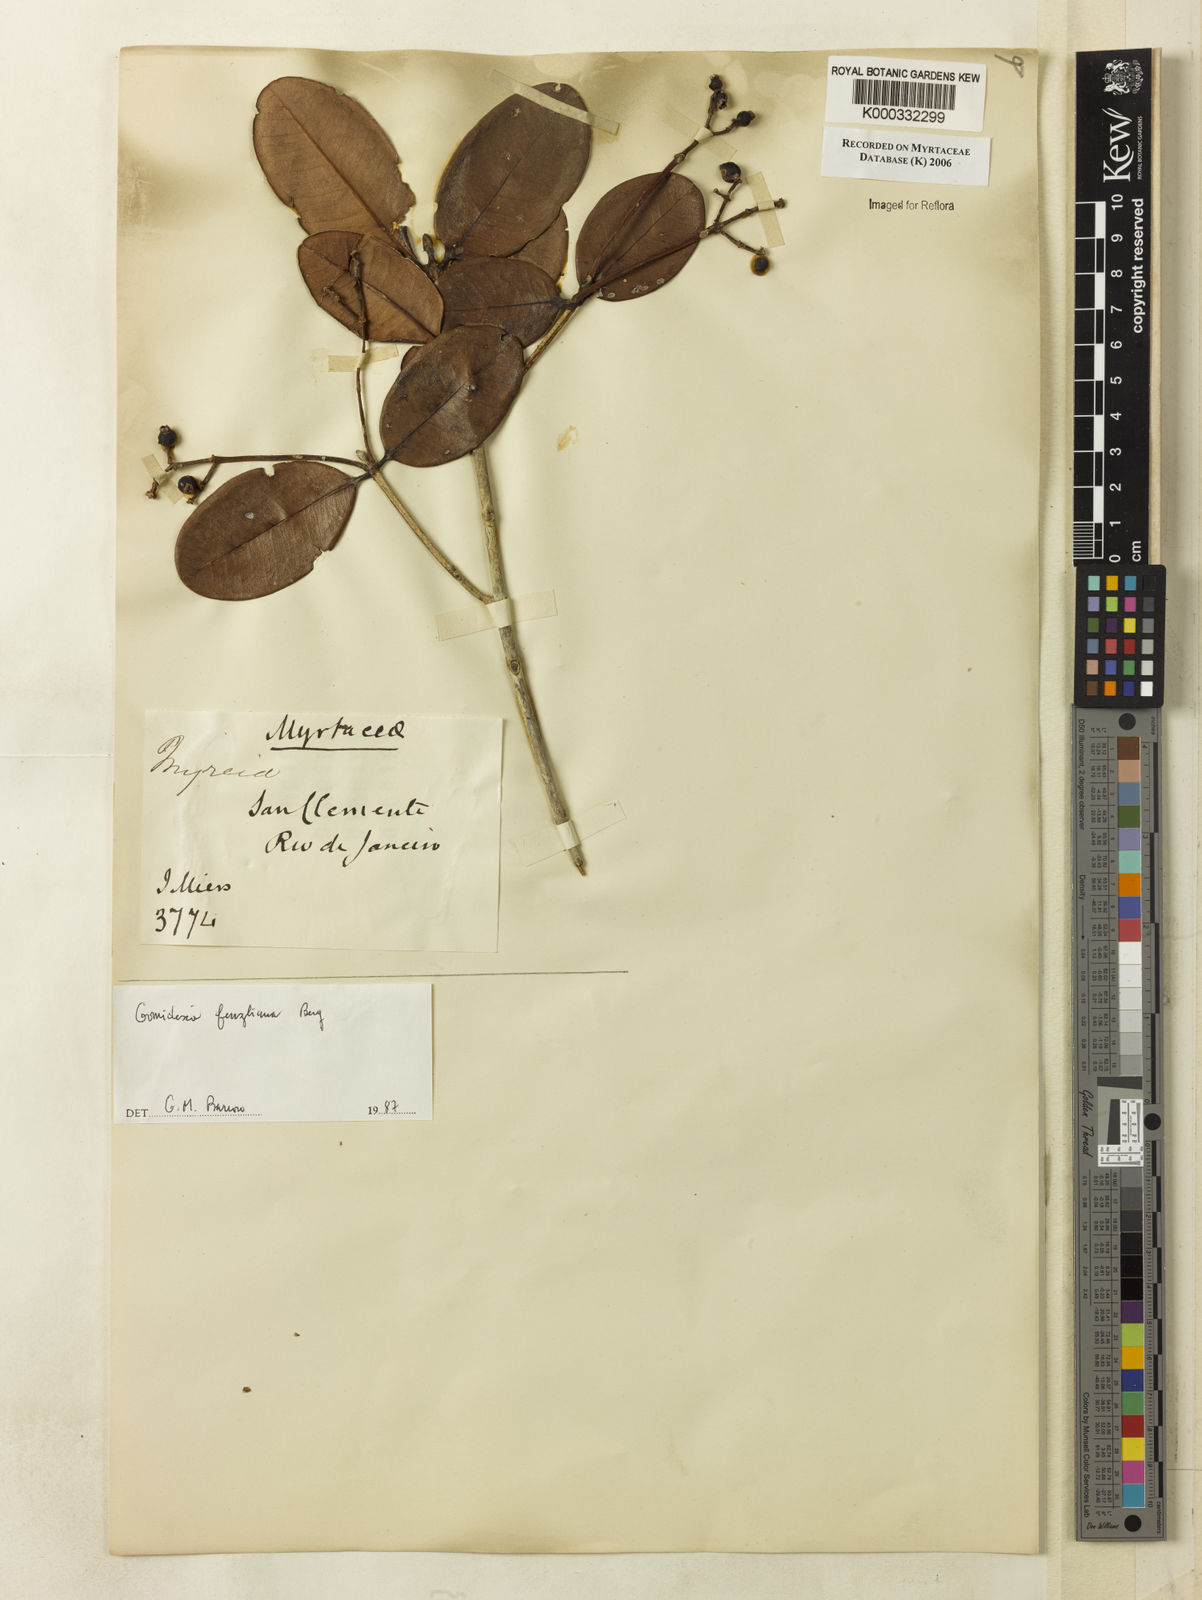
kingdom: Plantae
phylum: Tracheophyta
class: Magnoliopsida
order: Myrtales
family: Myrtaceae
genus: Myrcia
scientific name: Myrcia ilheosensis
